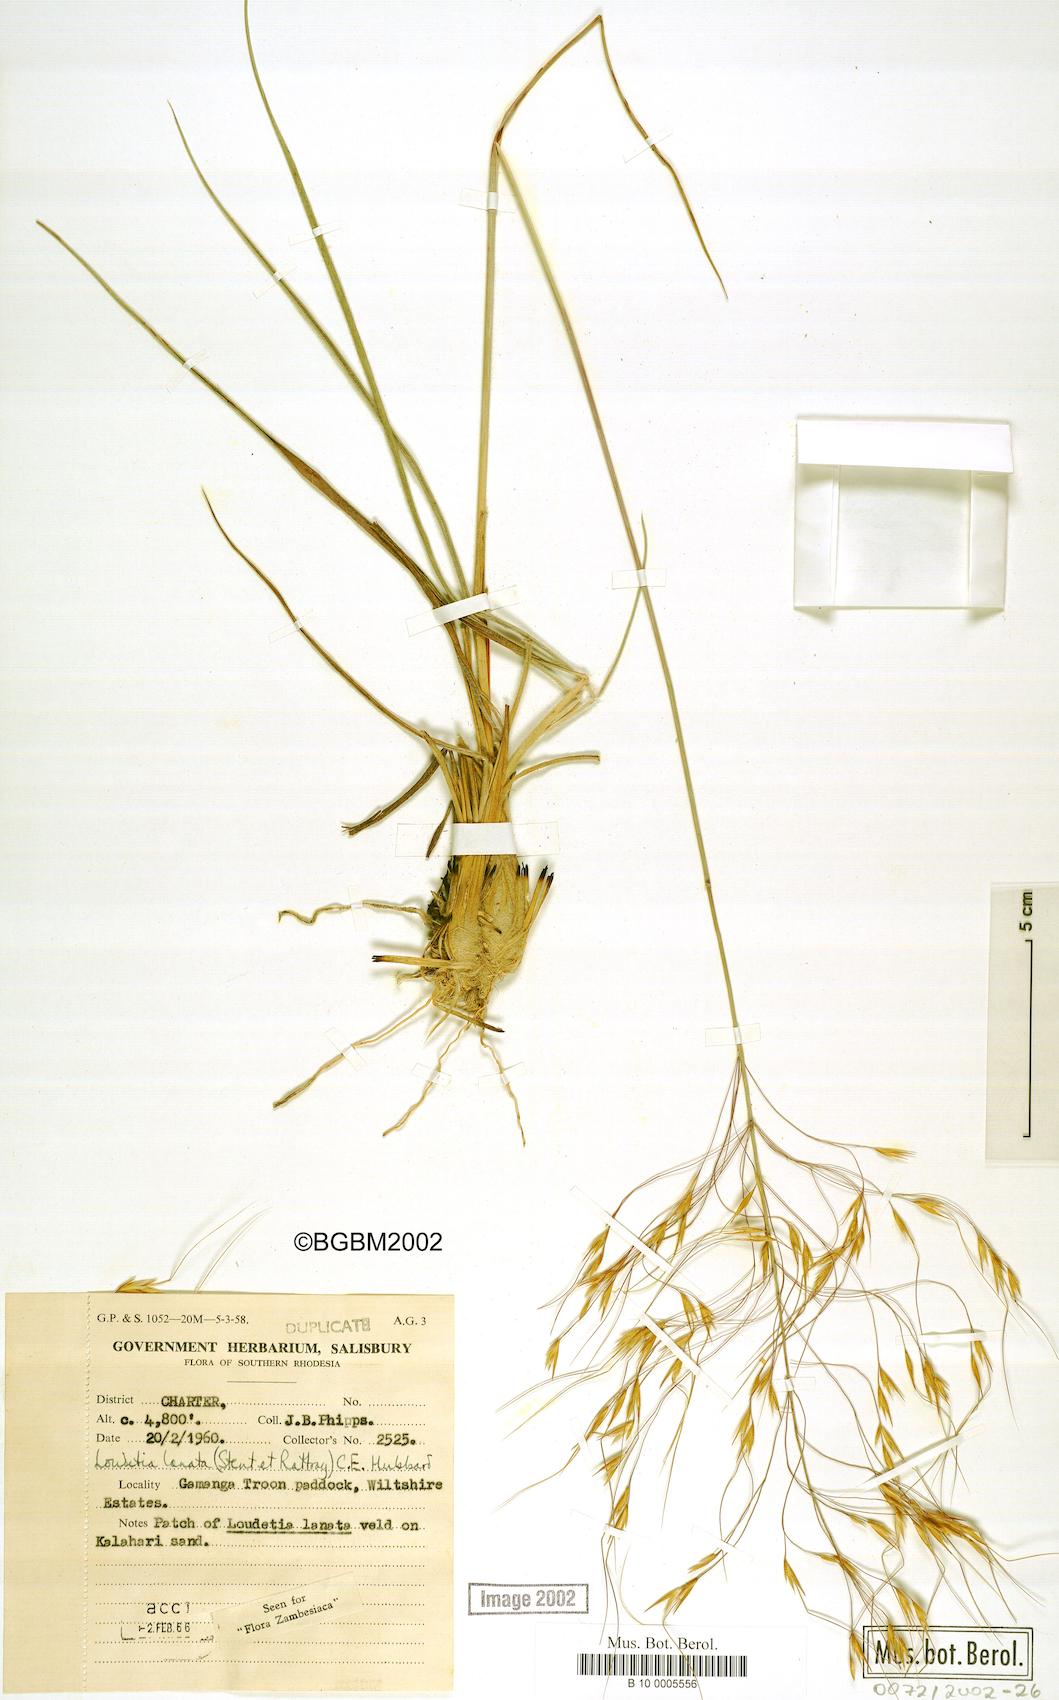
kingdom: Plantae
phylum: Tracheophyta
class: Liliopsida
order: Poales
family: Poaceae
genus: Loudetia
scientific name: Loudetia lanata
